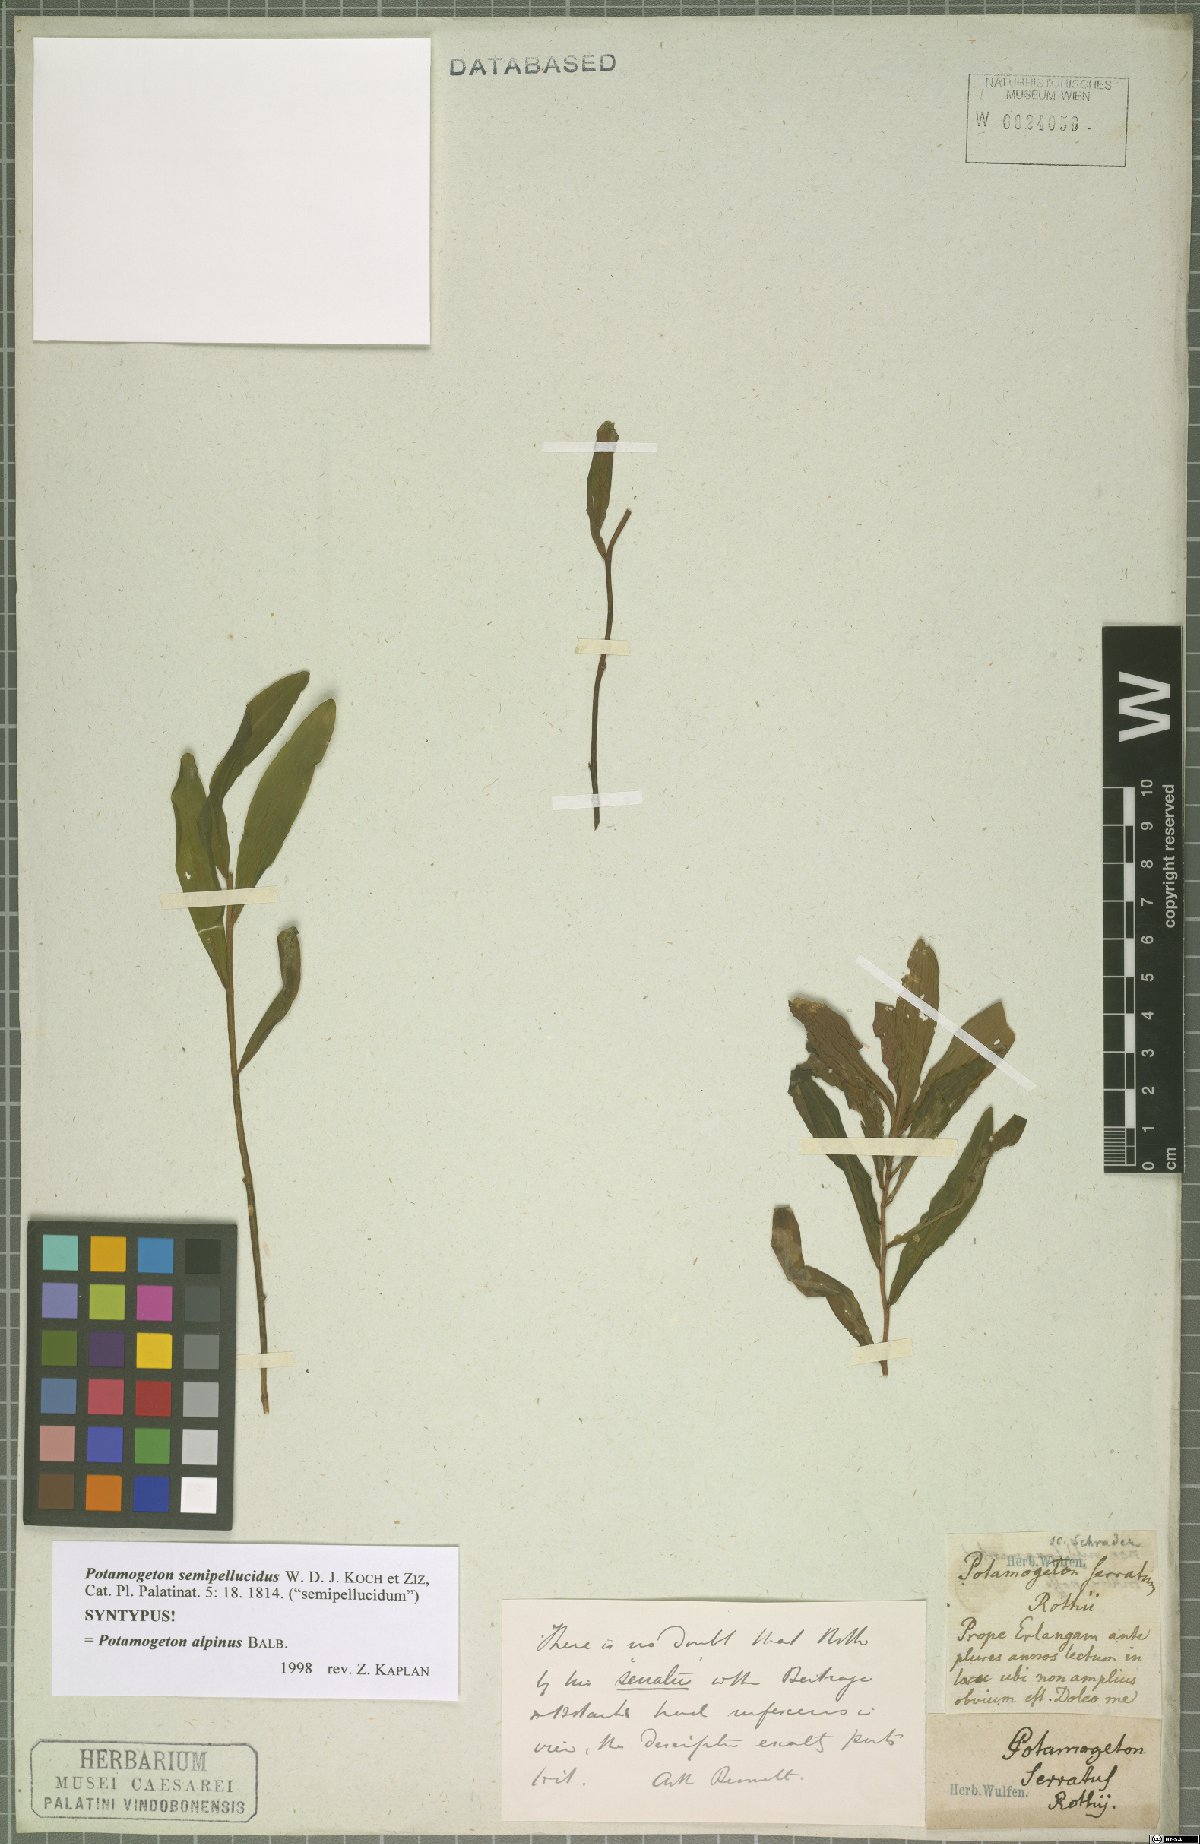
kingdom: Plantae
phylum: Tracheophyta
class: Liliopsida
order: Alismatales
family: Potamogetonaceae
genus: Potamogeton
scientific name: Potamogeton alpinus
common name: Red pondweed
